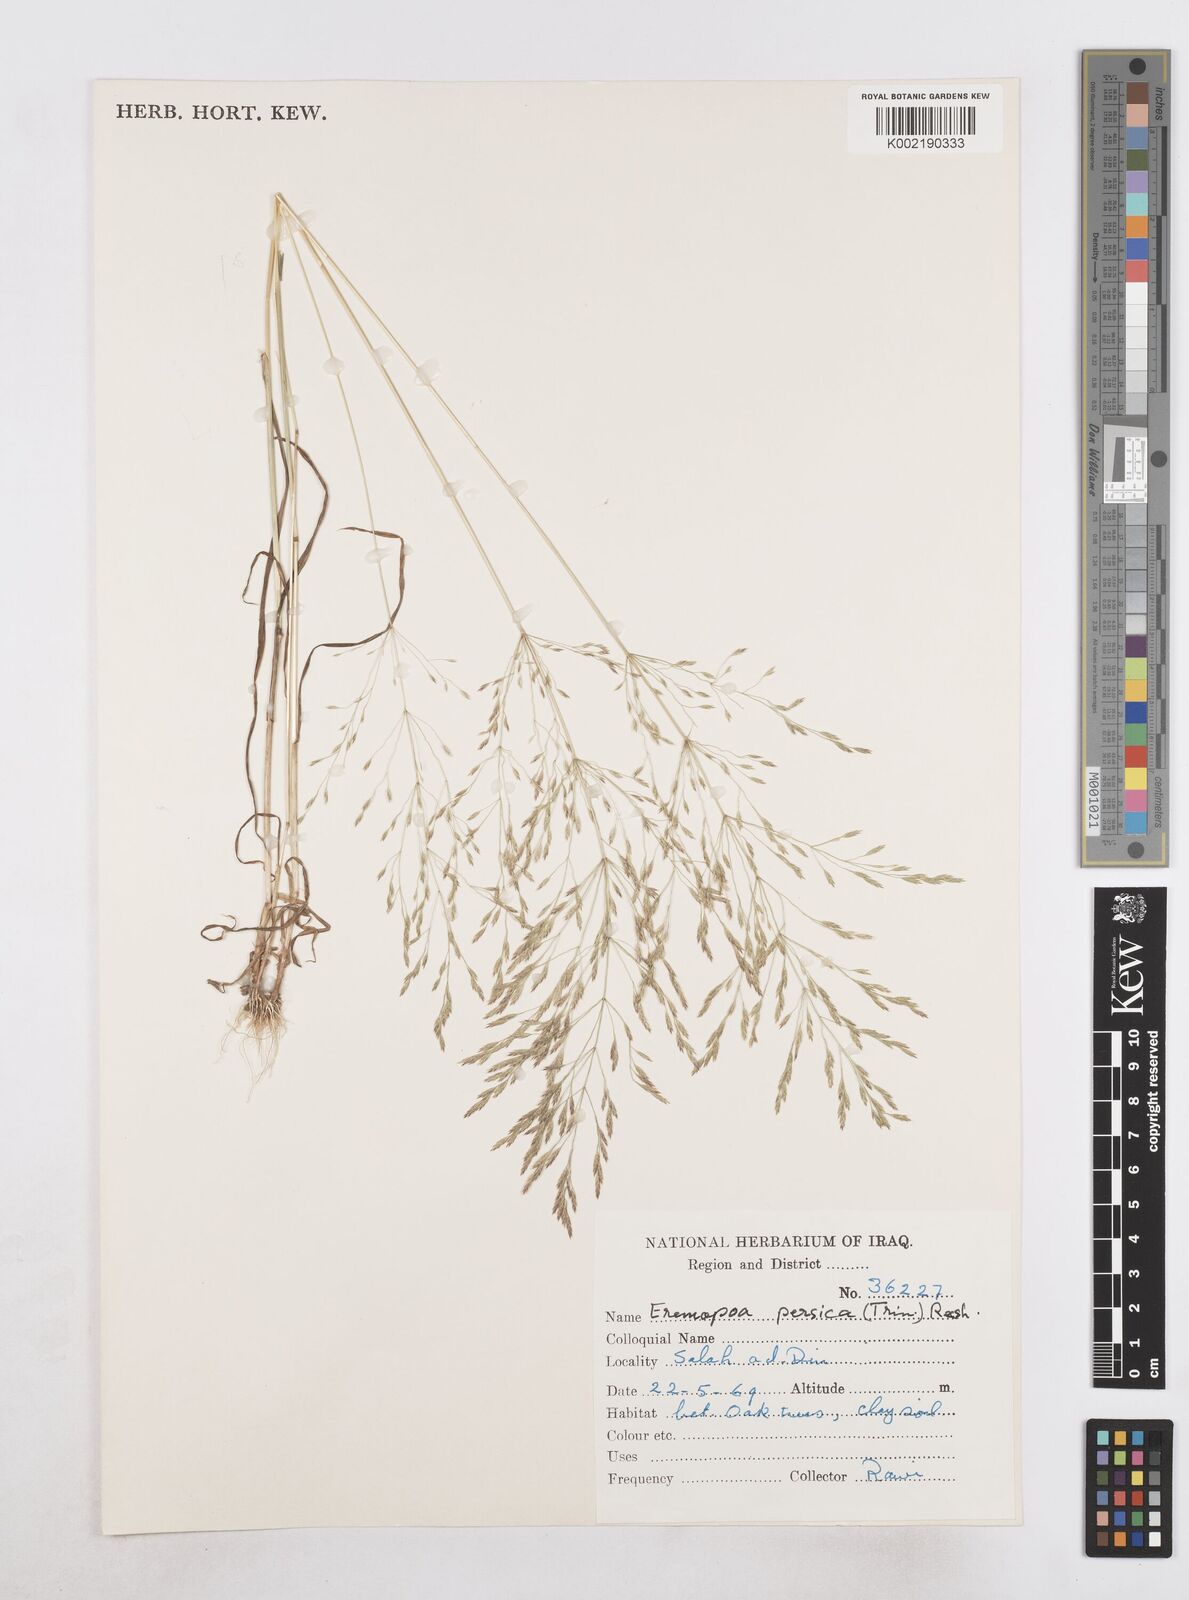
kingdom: Plantae
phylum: Tracheophyta
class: Liliopsida
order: Poales
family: Poaceae
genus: Poa
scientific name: Poa persica
